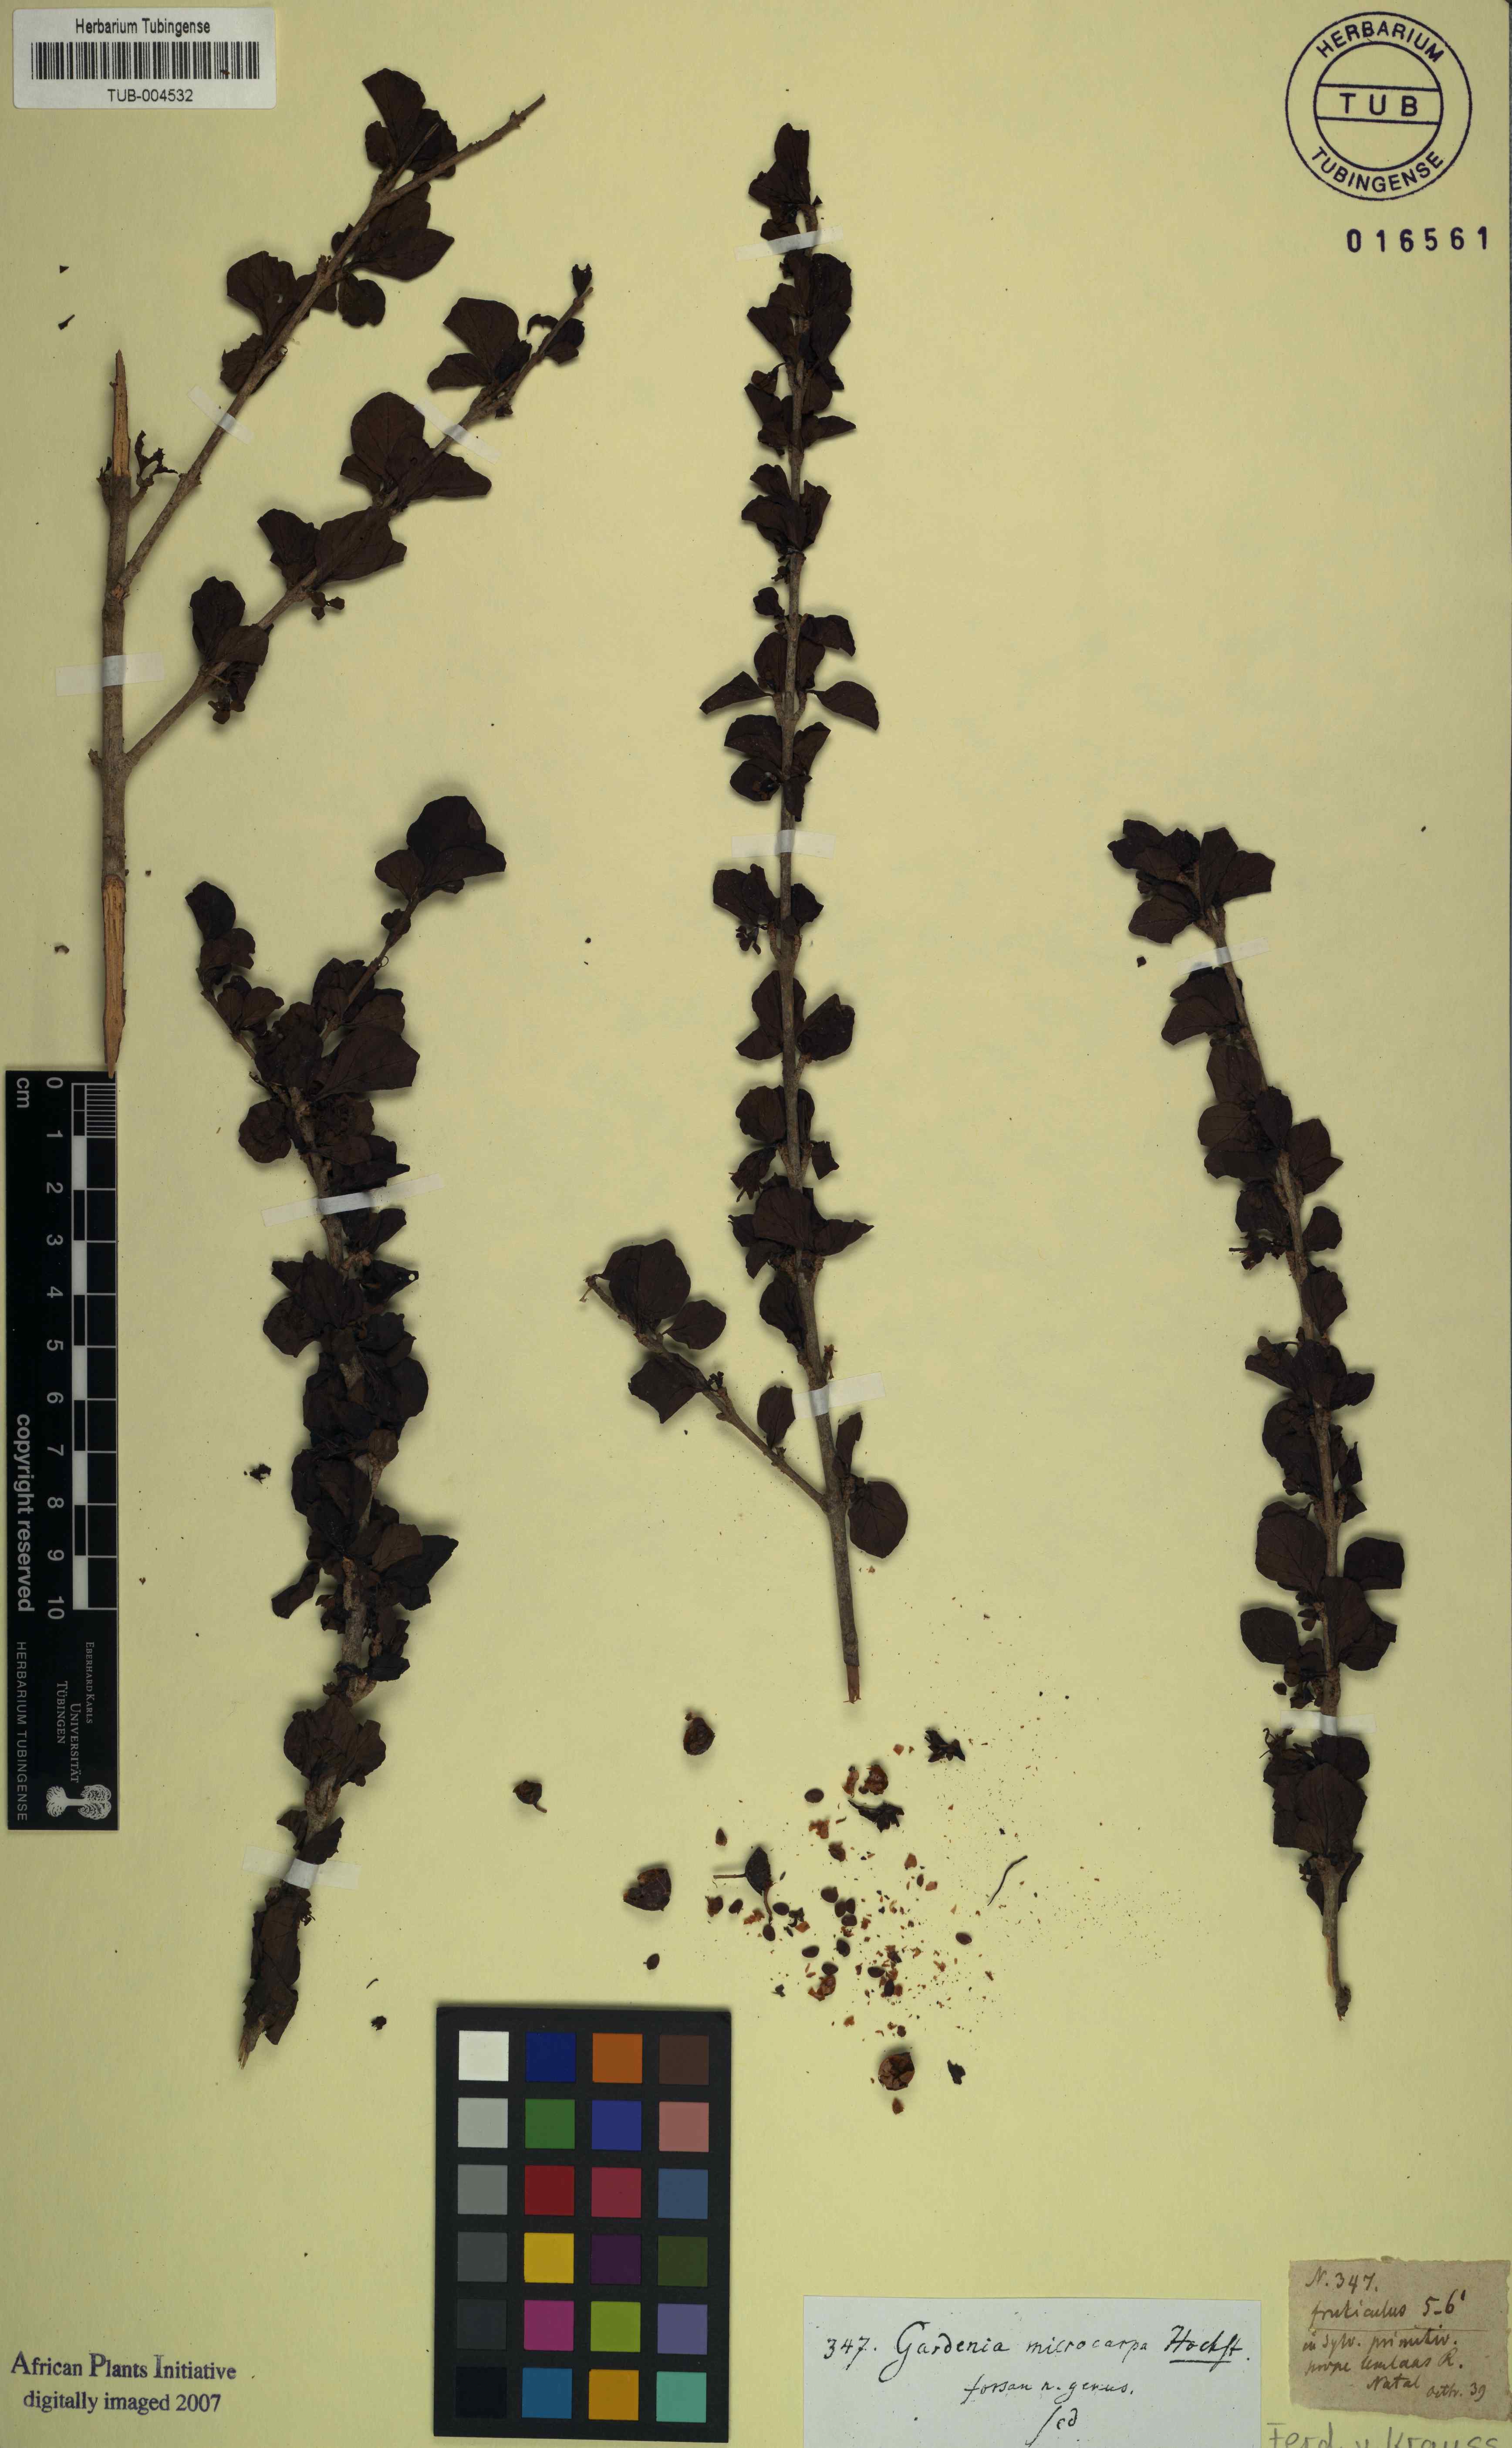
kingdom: Plantae
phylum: Tracheophyta
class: Magnoliopsida
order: Gentianales
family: Rubiaceae
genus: Coddia
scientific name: Coddia rudis
